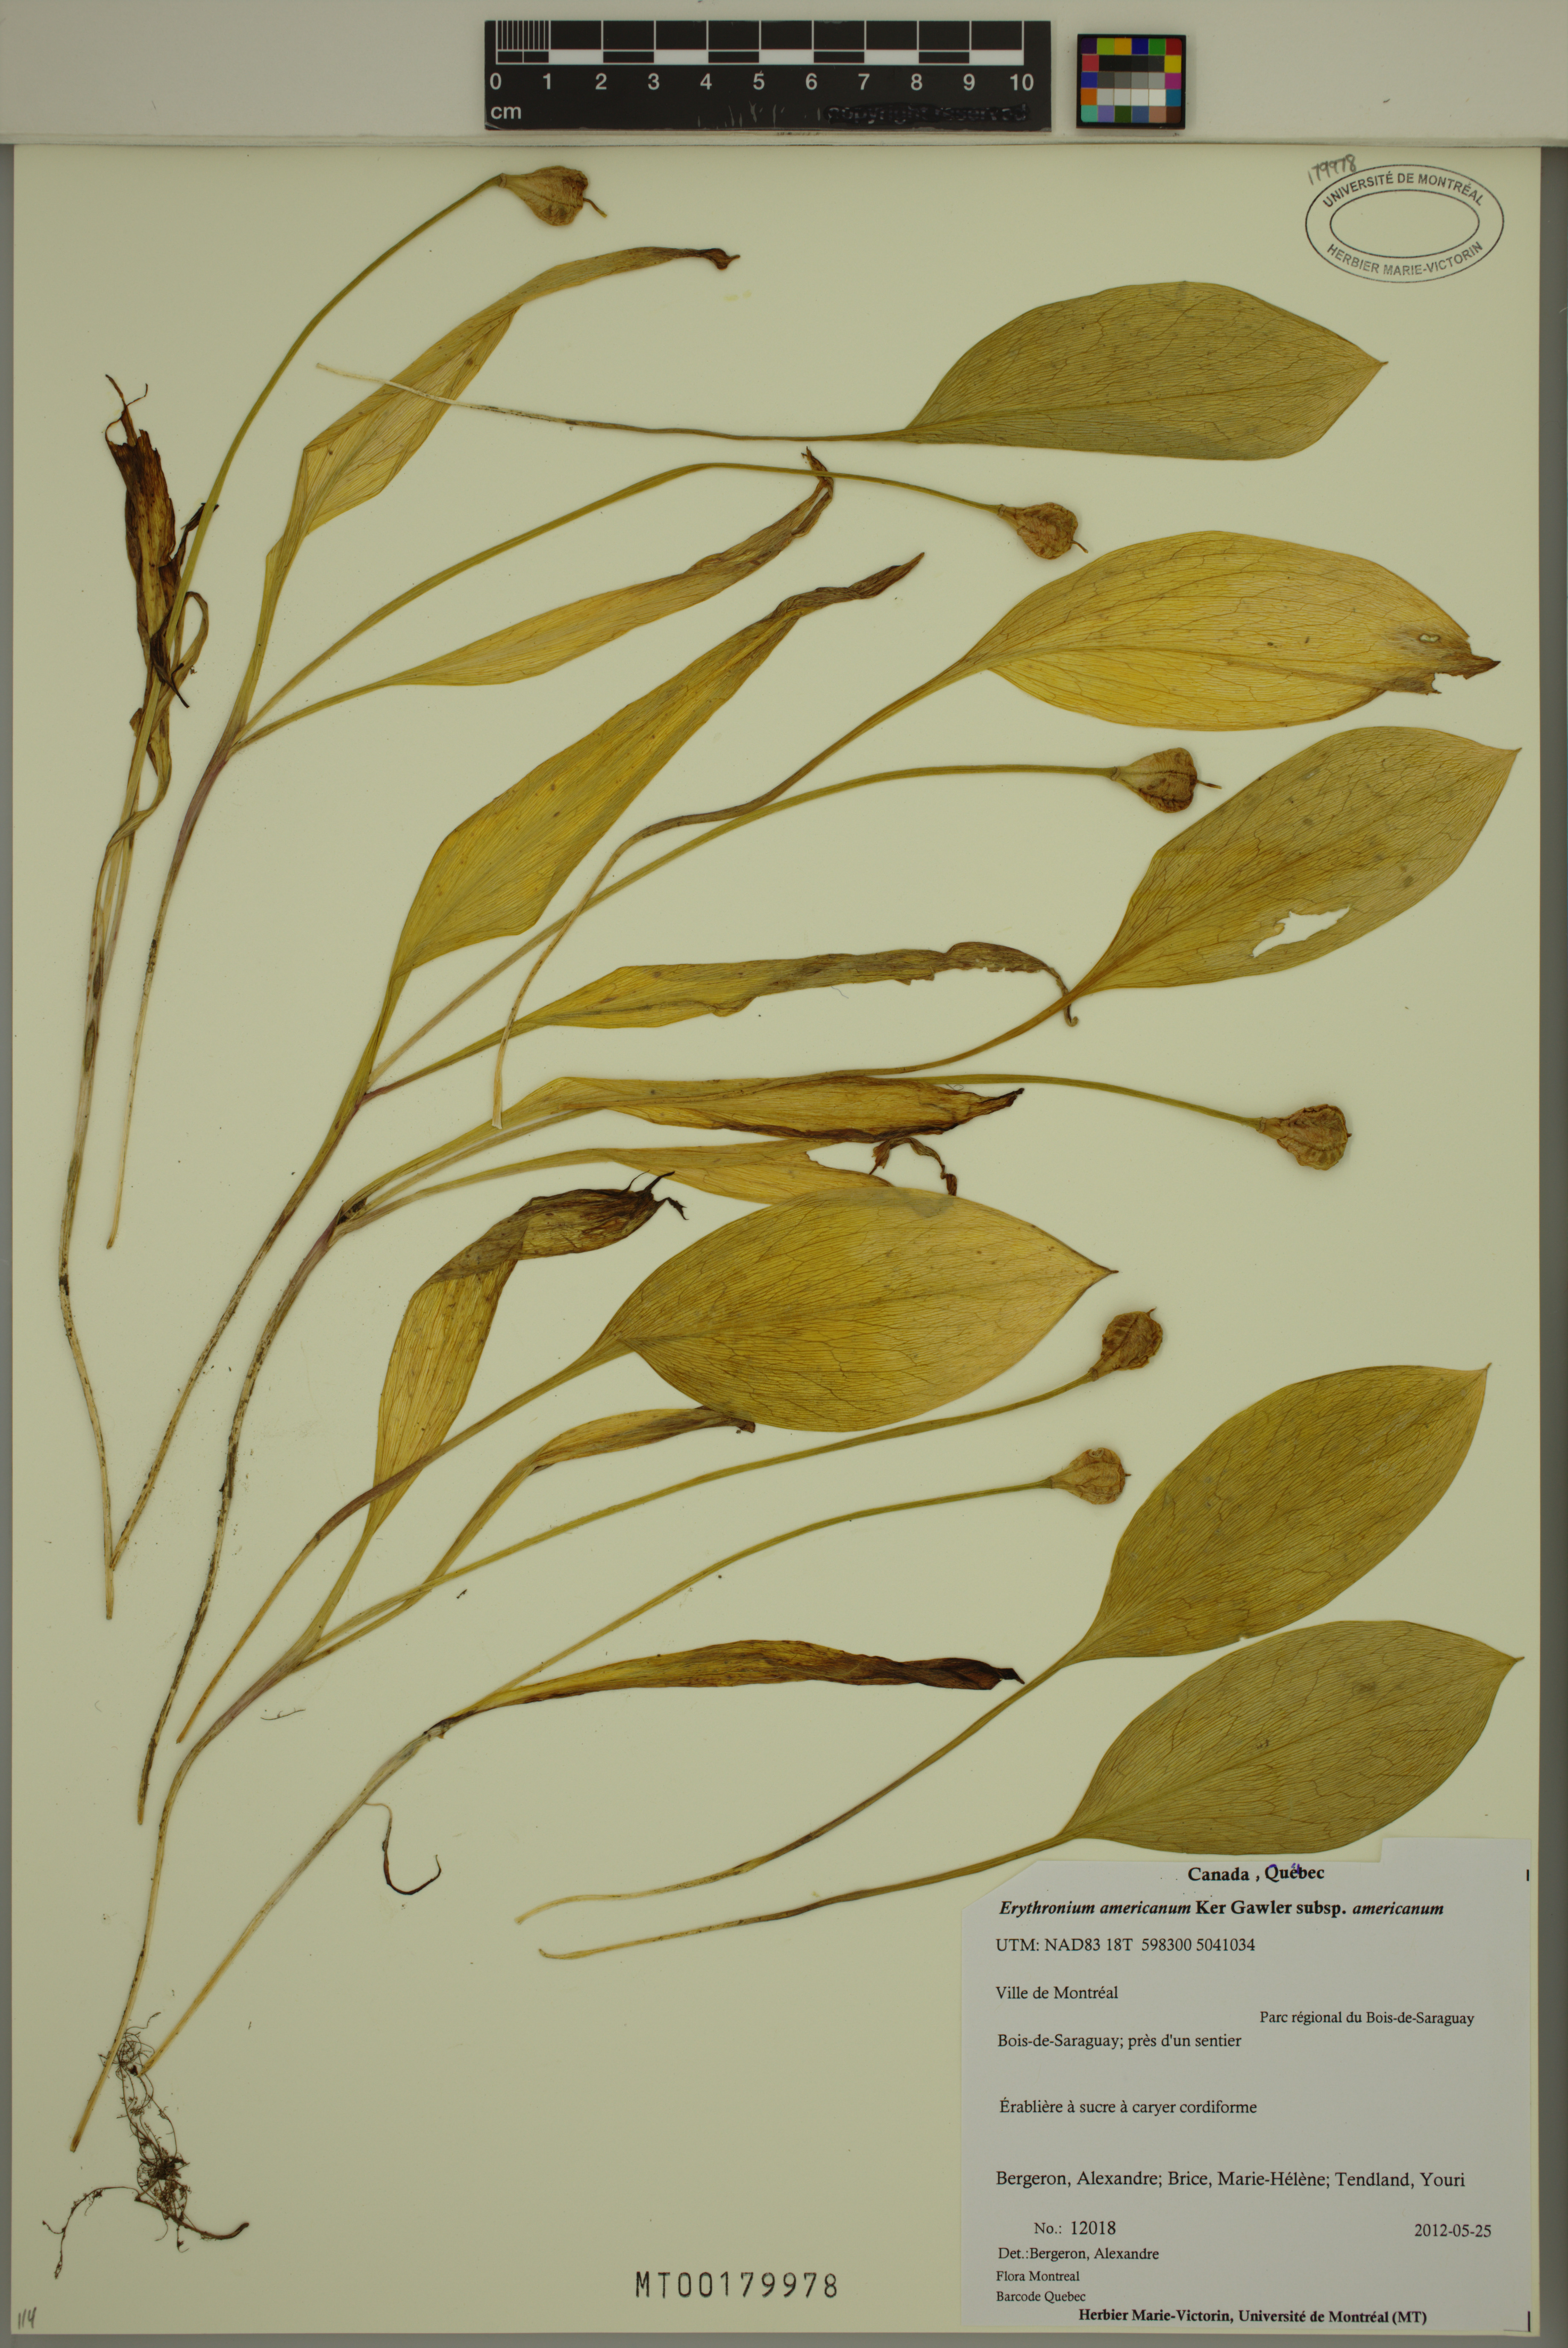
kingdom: Plantae
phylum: Tracheophyta
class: Liliopsida
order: Liliales
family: Liliaceae
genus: Erythronium
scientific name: Erythronium americanum
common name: Yellow adder's-tongue
